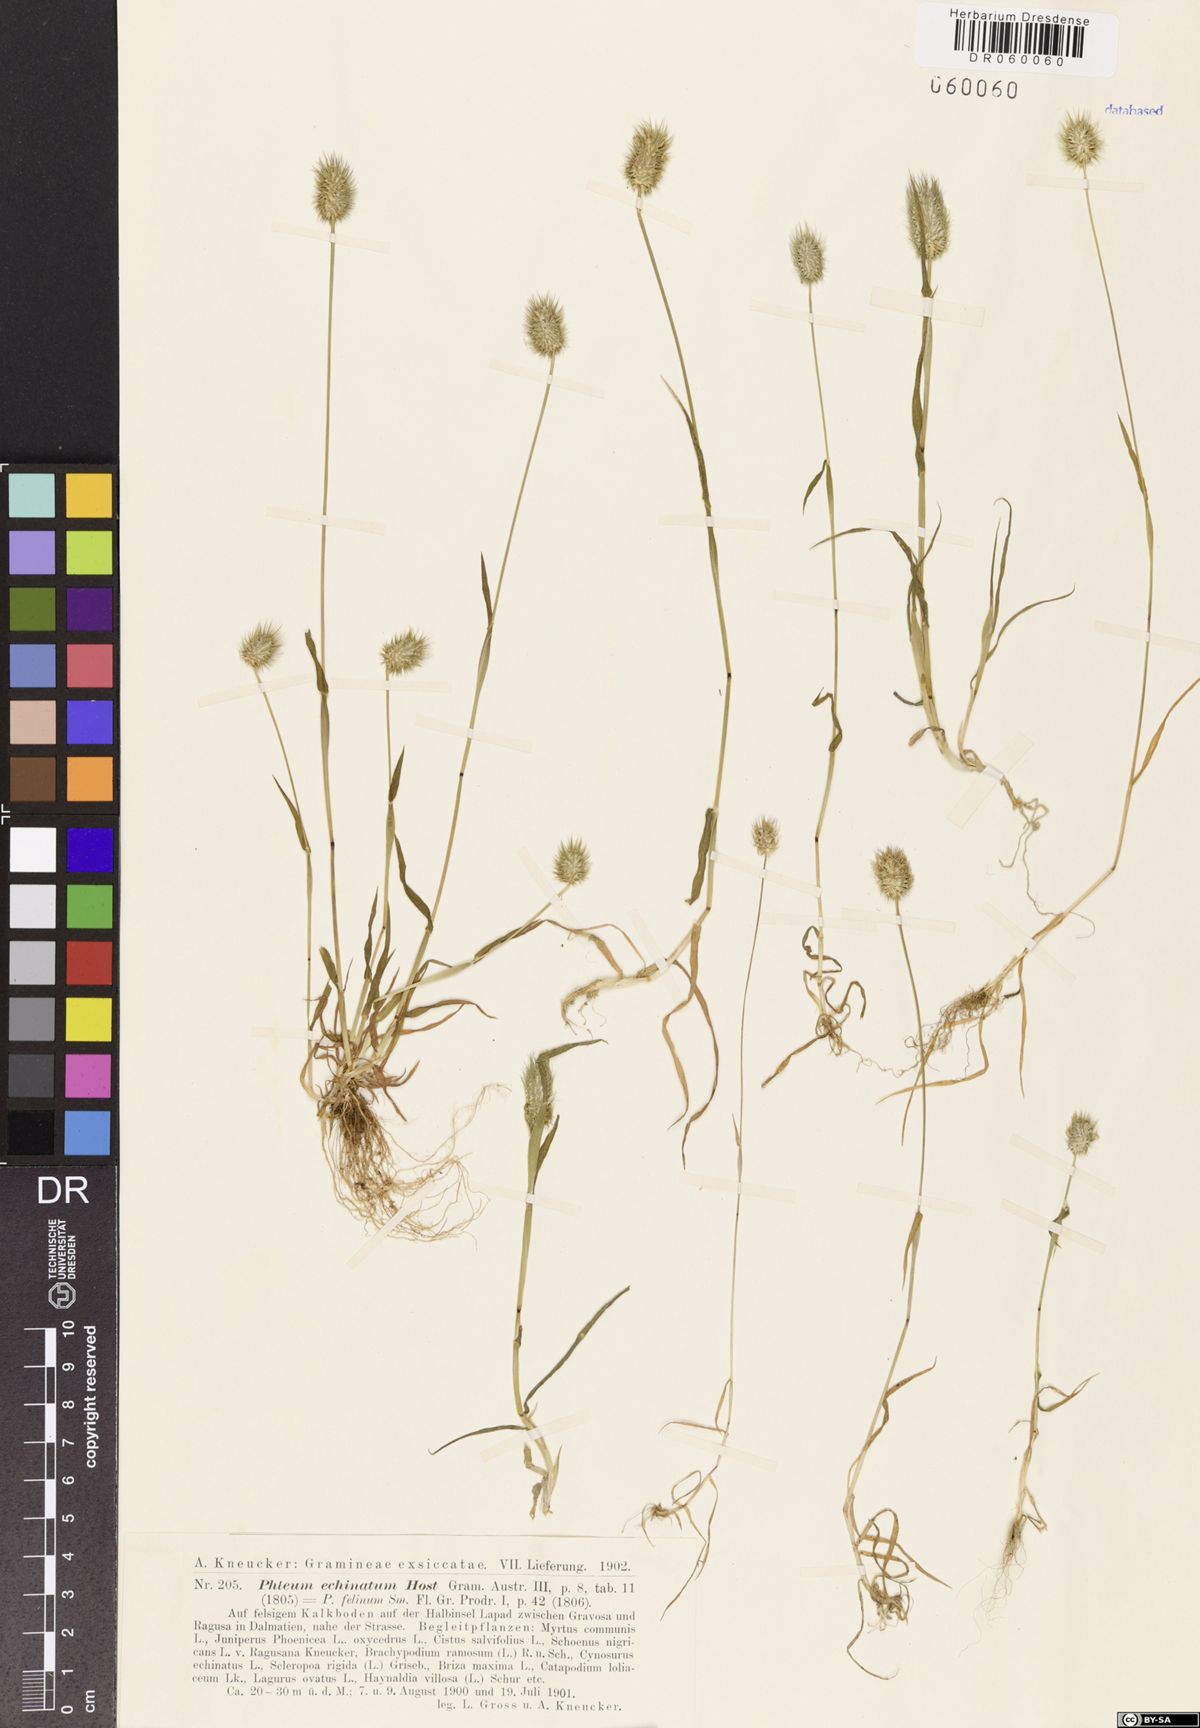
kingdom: Plantae
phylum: Tracheophyta
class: Liliopsida
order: Poales
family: Poaceae
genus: Phleum
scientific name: Phleum echinatum
